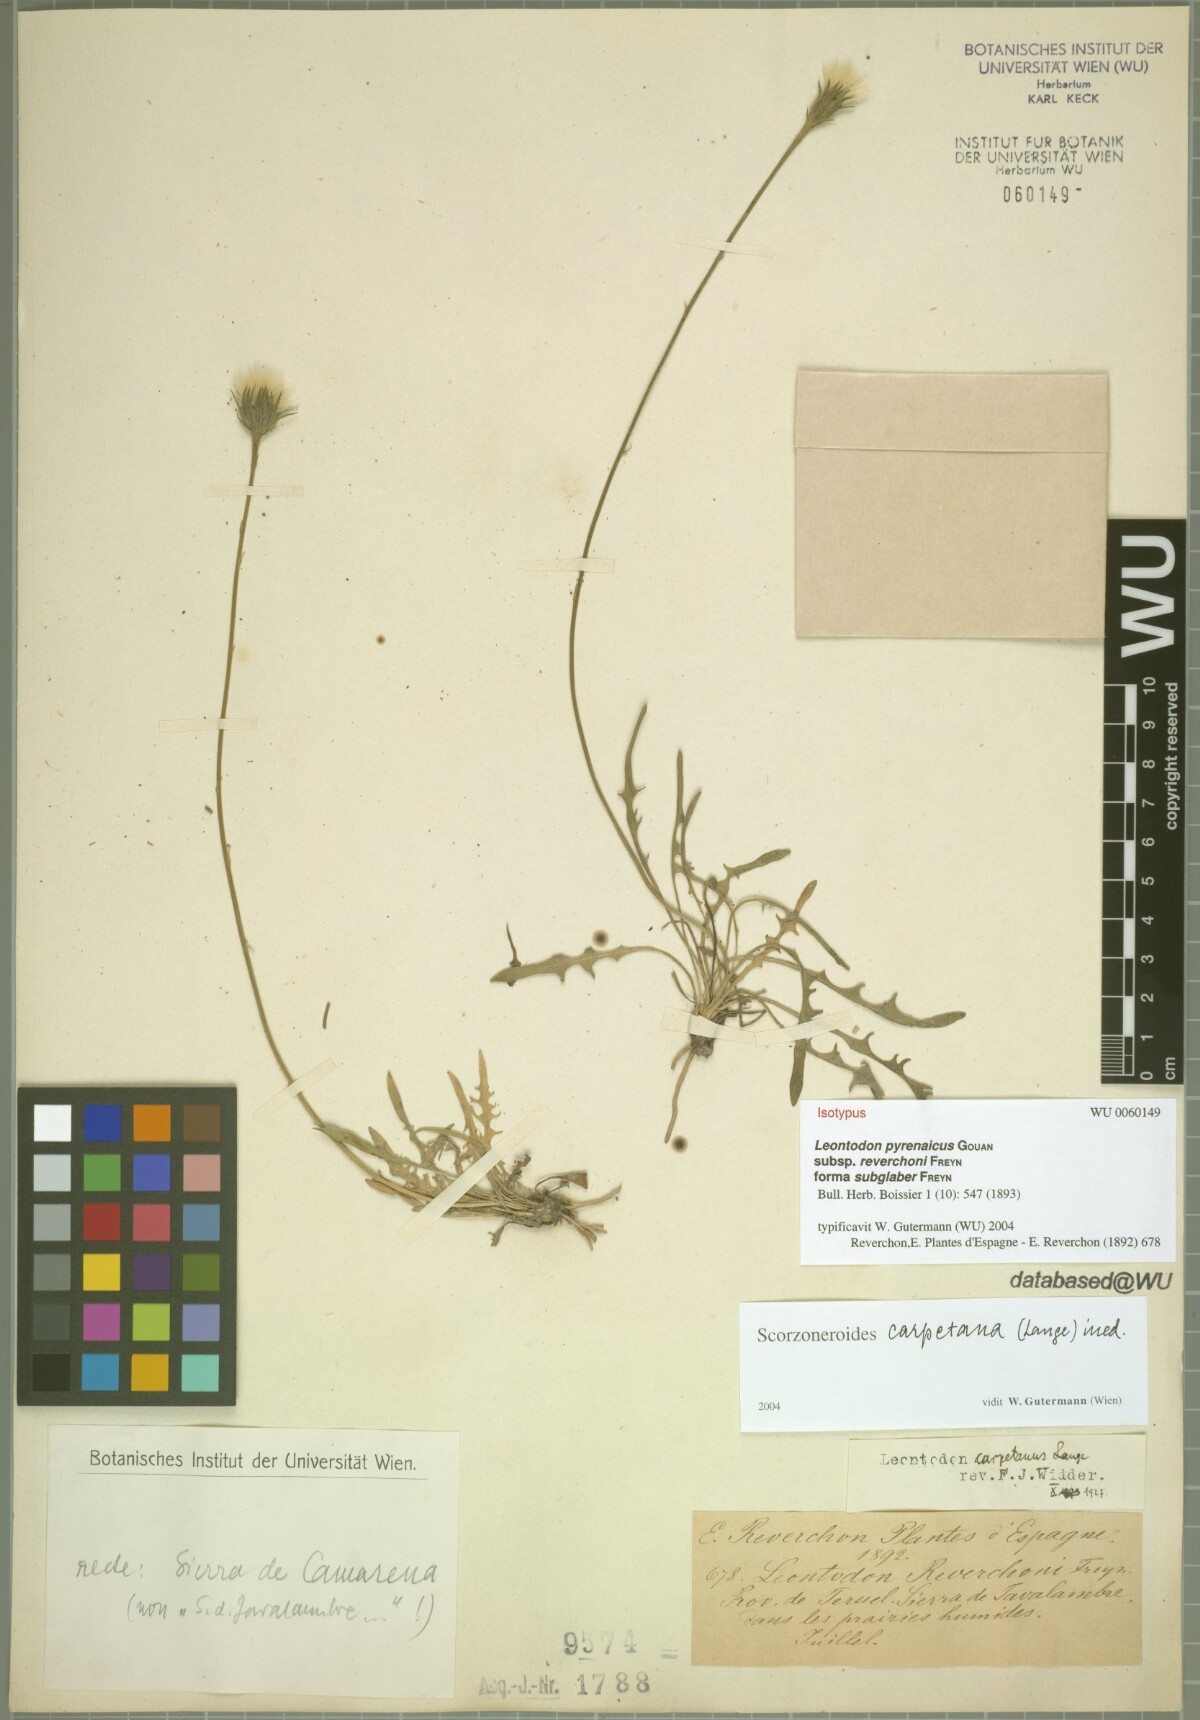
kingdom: Plantae
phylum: Tracheophyta
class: Magnoliopsida
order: Asterales
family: Asteraceae
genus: Scorzoneroides
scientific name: Scorzoneroides pyrenaica
